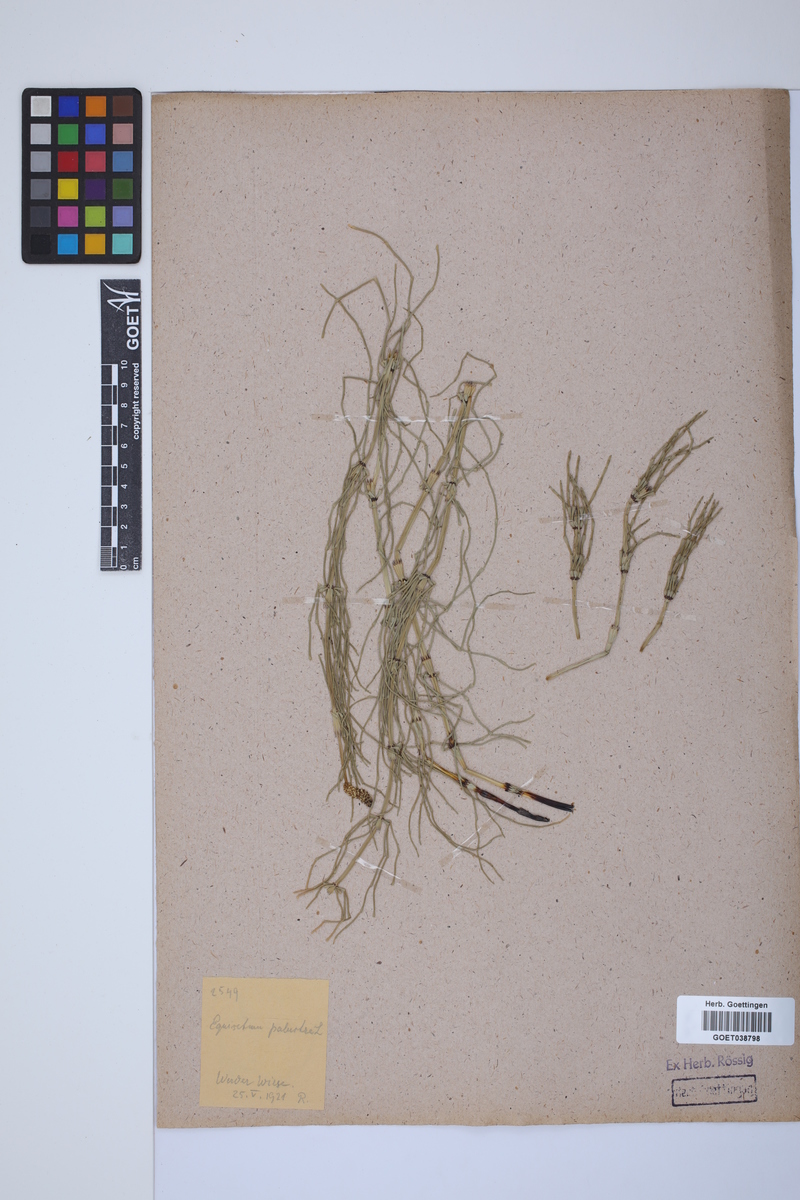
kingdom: Plantae
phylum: Tracheophyta
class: Polypodiopsida
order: Equisetales
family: Equisetaceae
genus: Equisetum
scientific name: Equisetum palustre
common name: Marsh horsetail
